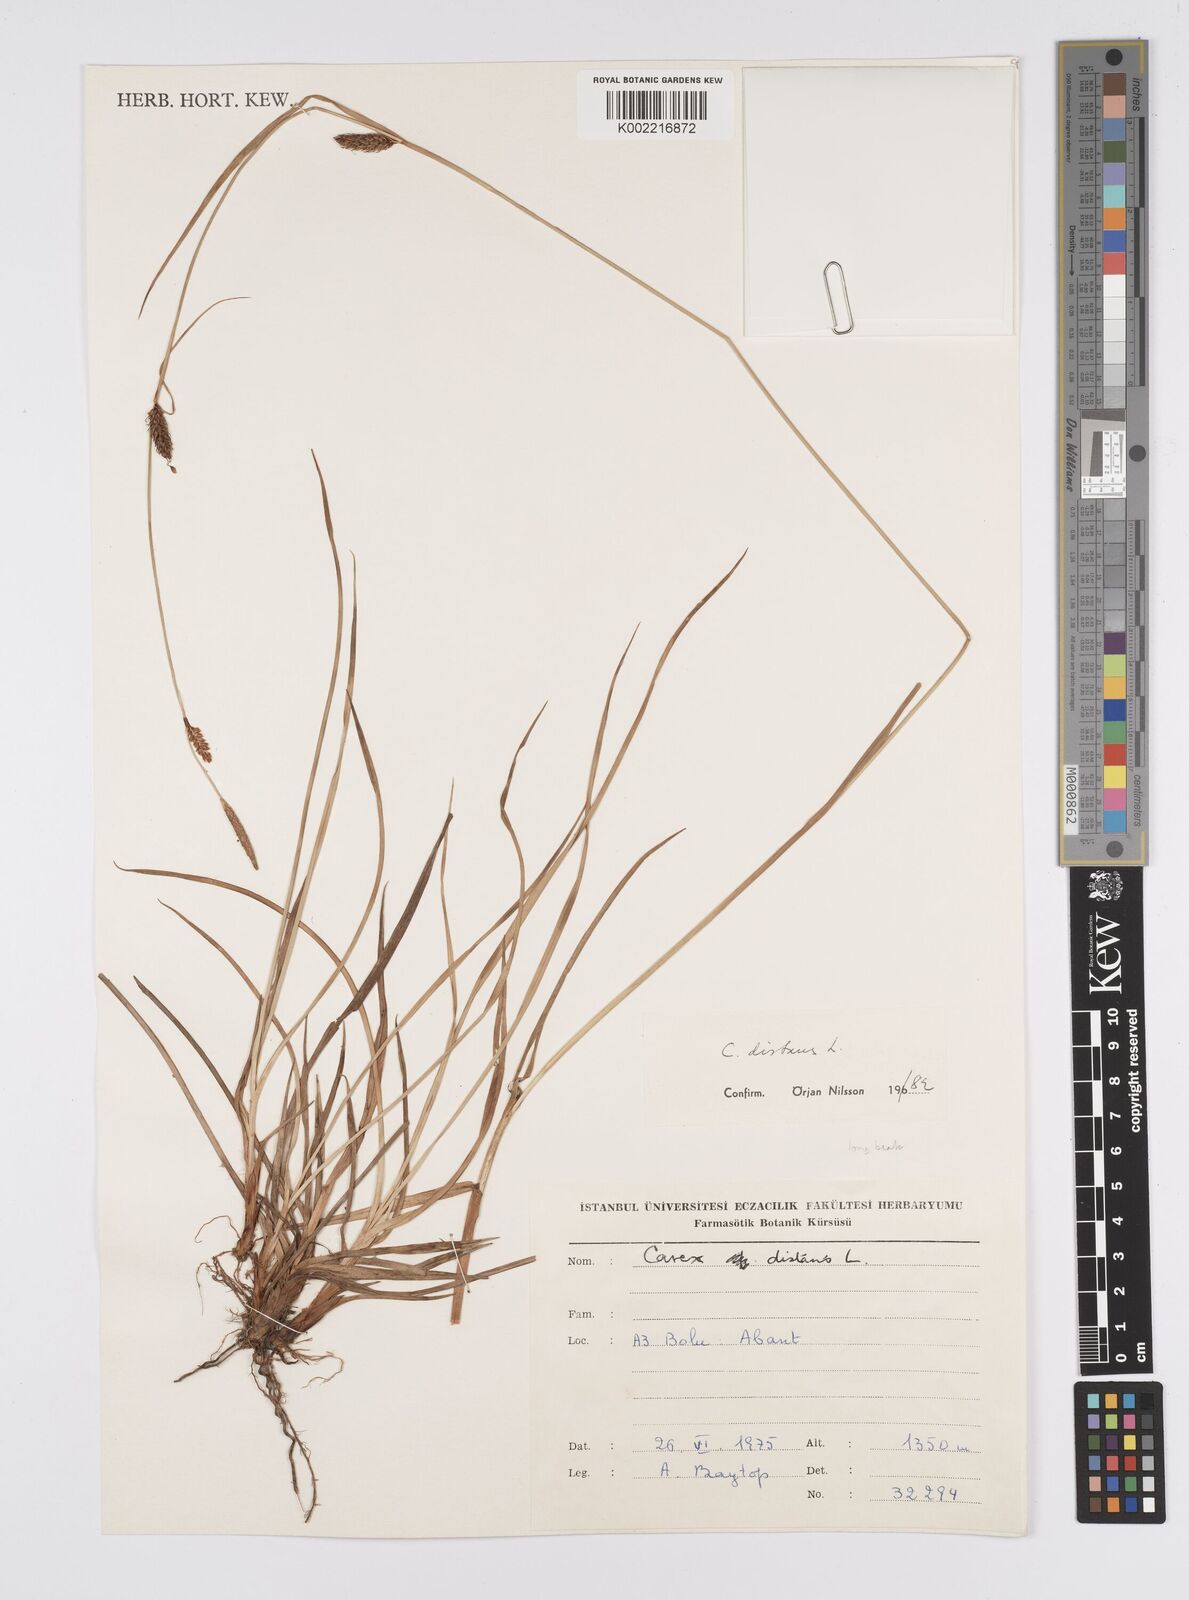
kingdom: Plantae
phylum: Tracheophyta
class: Liliopsida
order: Poales
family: Cyperaceae
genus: Carex
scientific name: Carex distans
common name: Distant sedge
